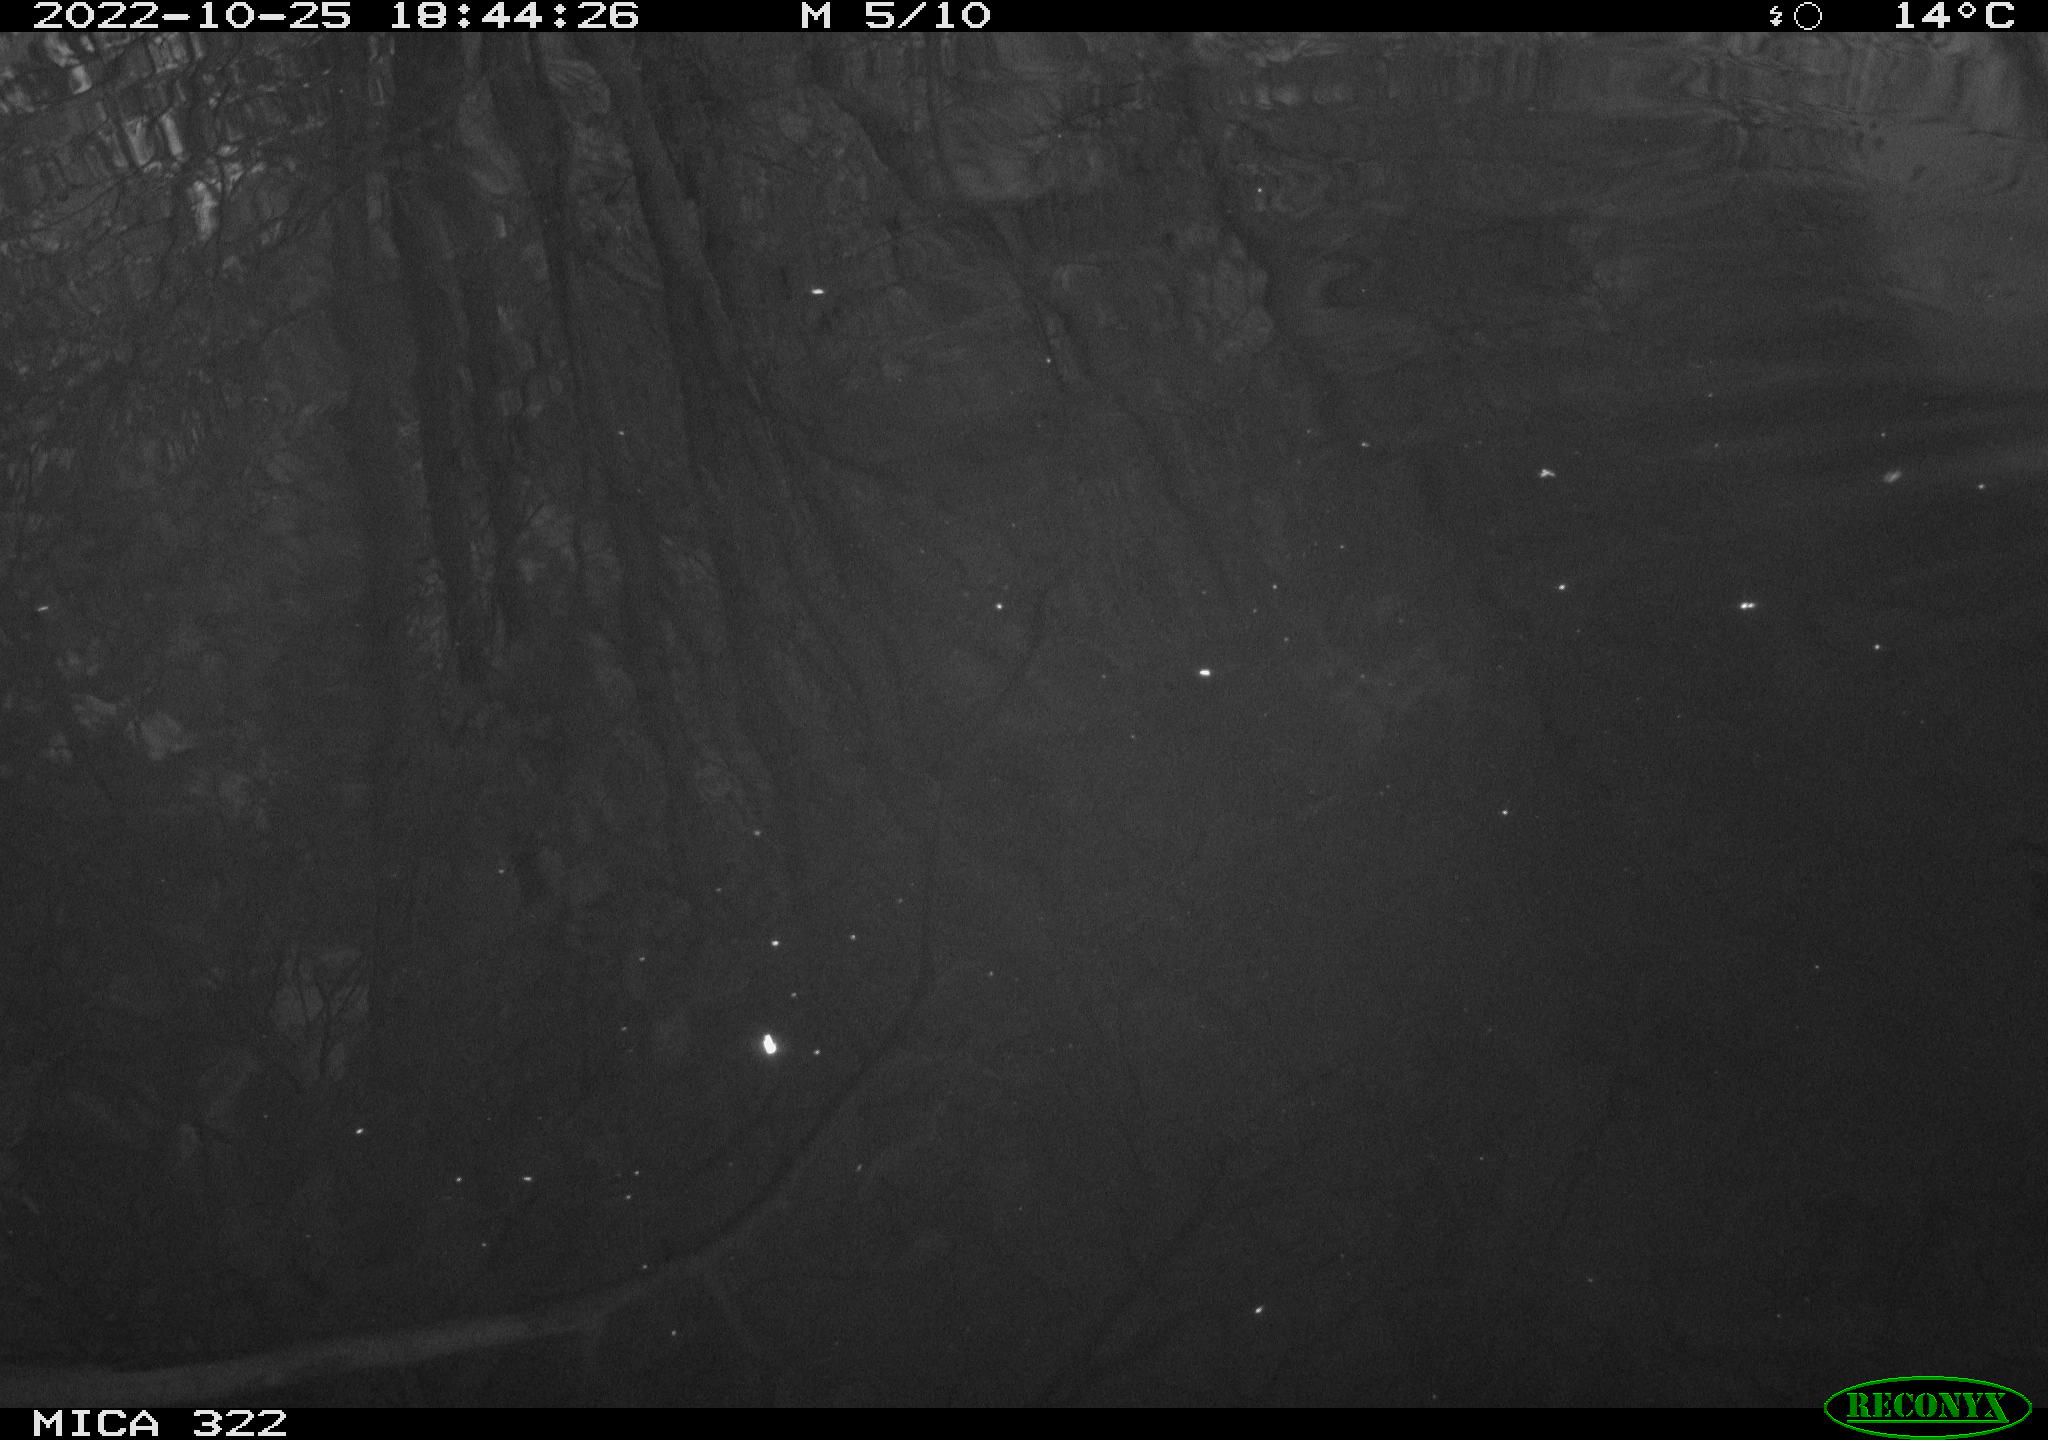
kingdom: Animalia
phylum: Chordata
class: Aves
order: Anseriformes
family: Anatidae
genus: Anas
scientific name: Anas
